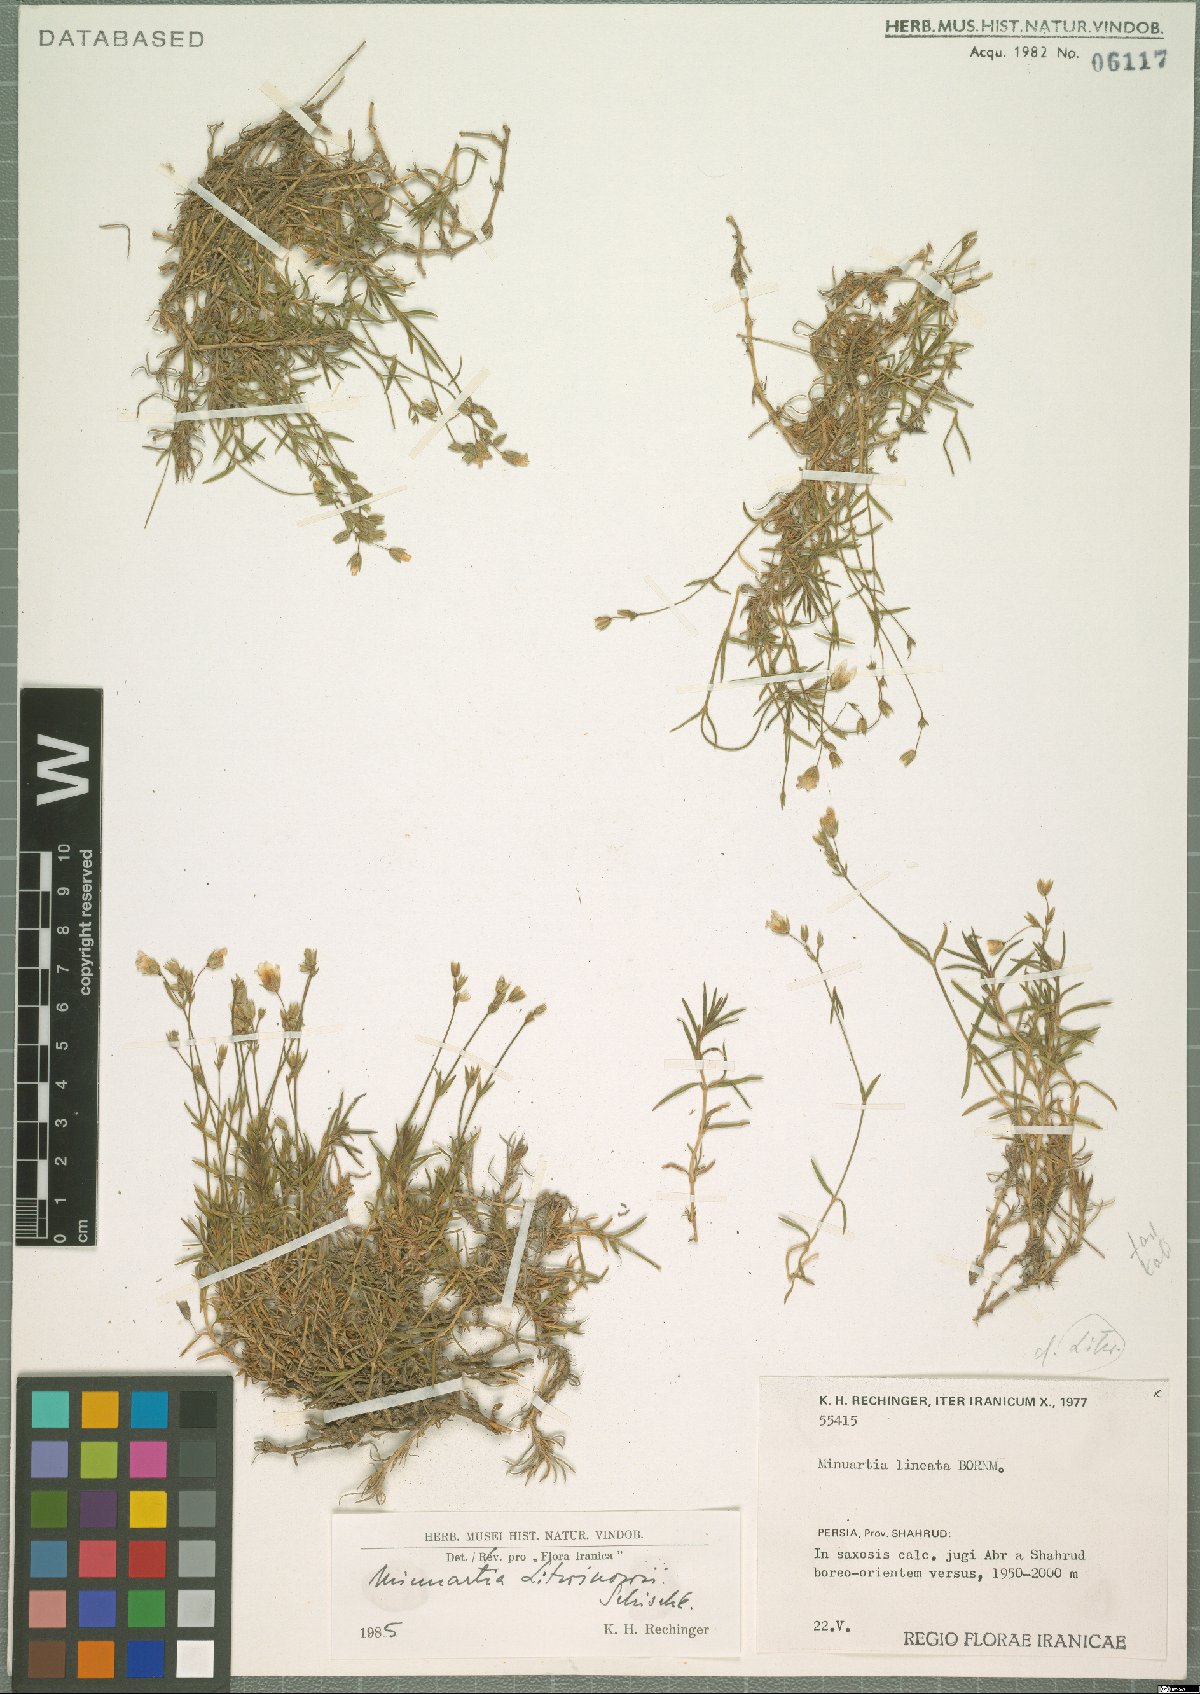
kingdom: Plantae
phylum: Tracheophyta
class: Magnoliopsida
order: Caryophyllales
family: Caryophyllaceae
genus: Sabulina
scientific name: Sabulina litwinowii
